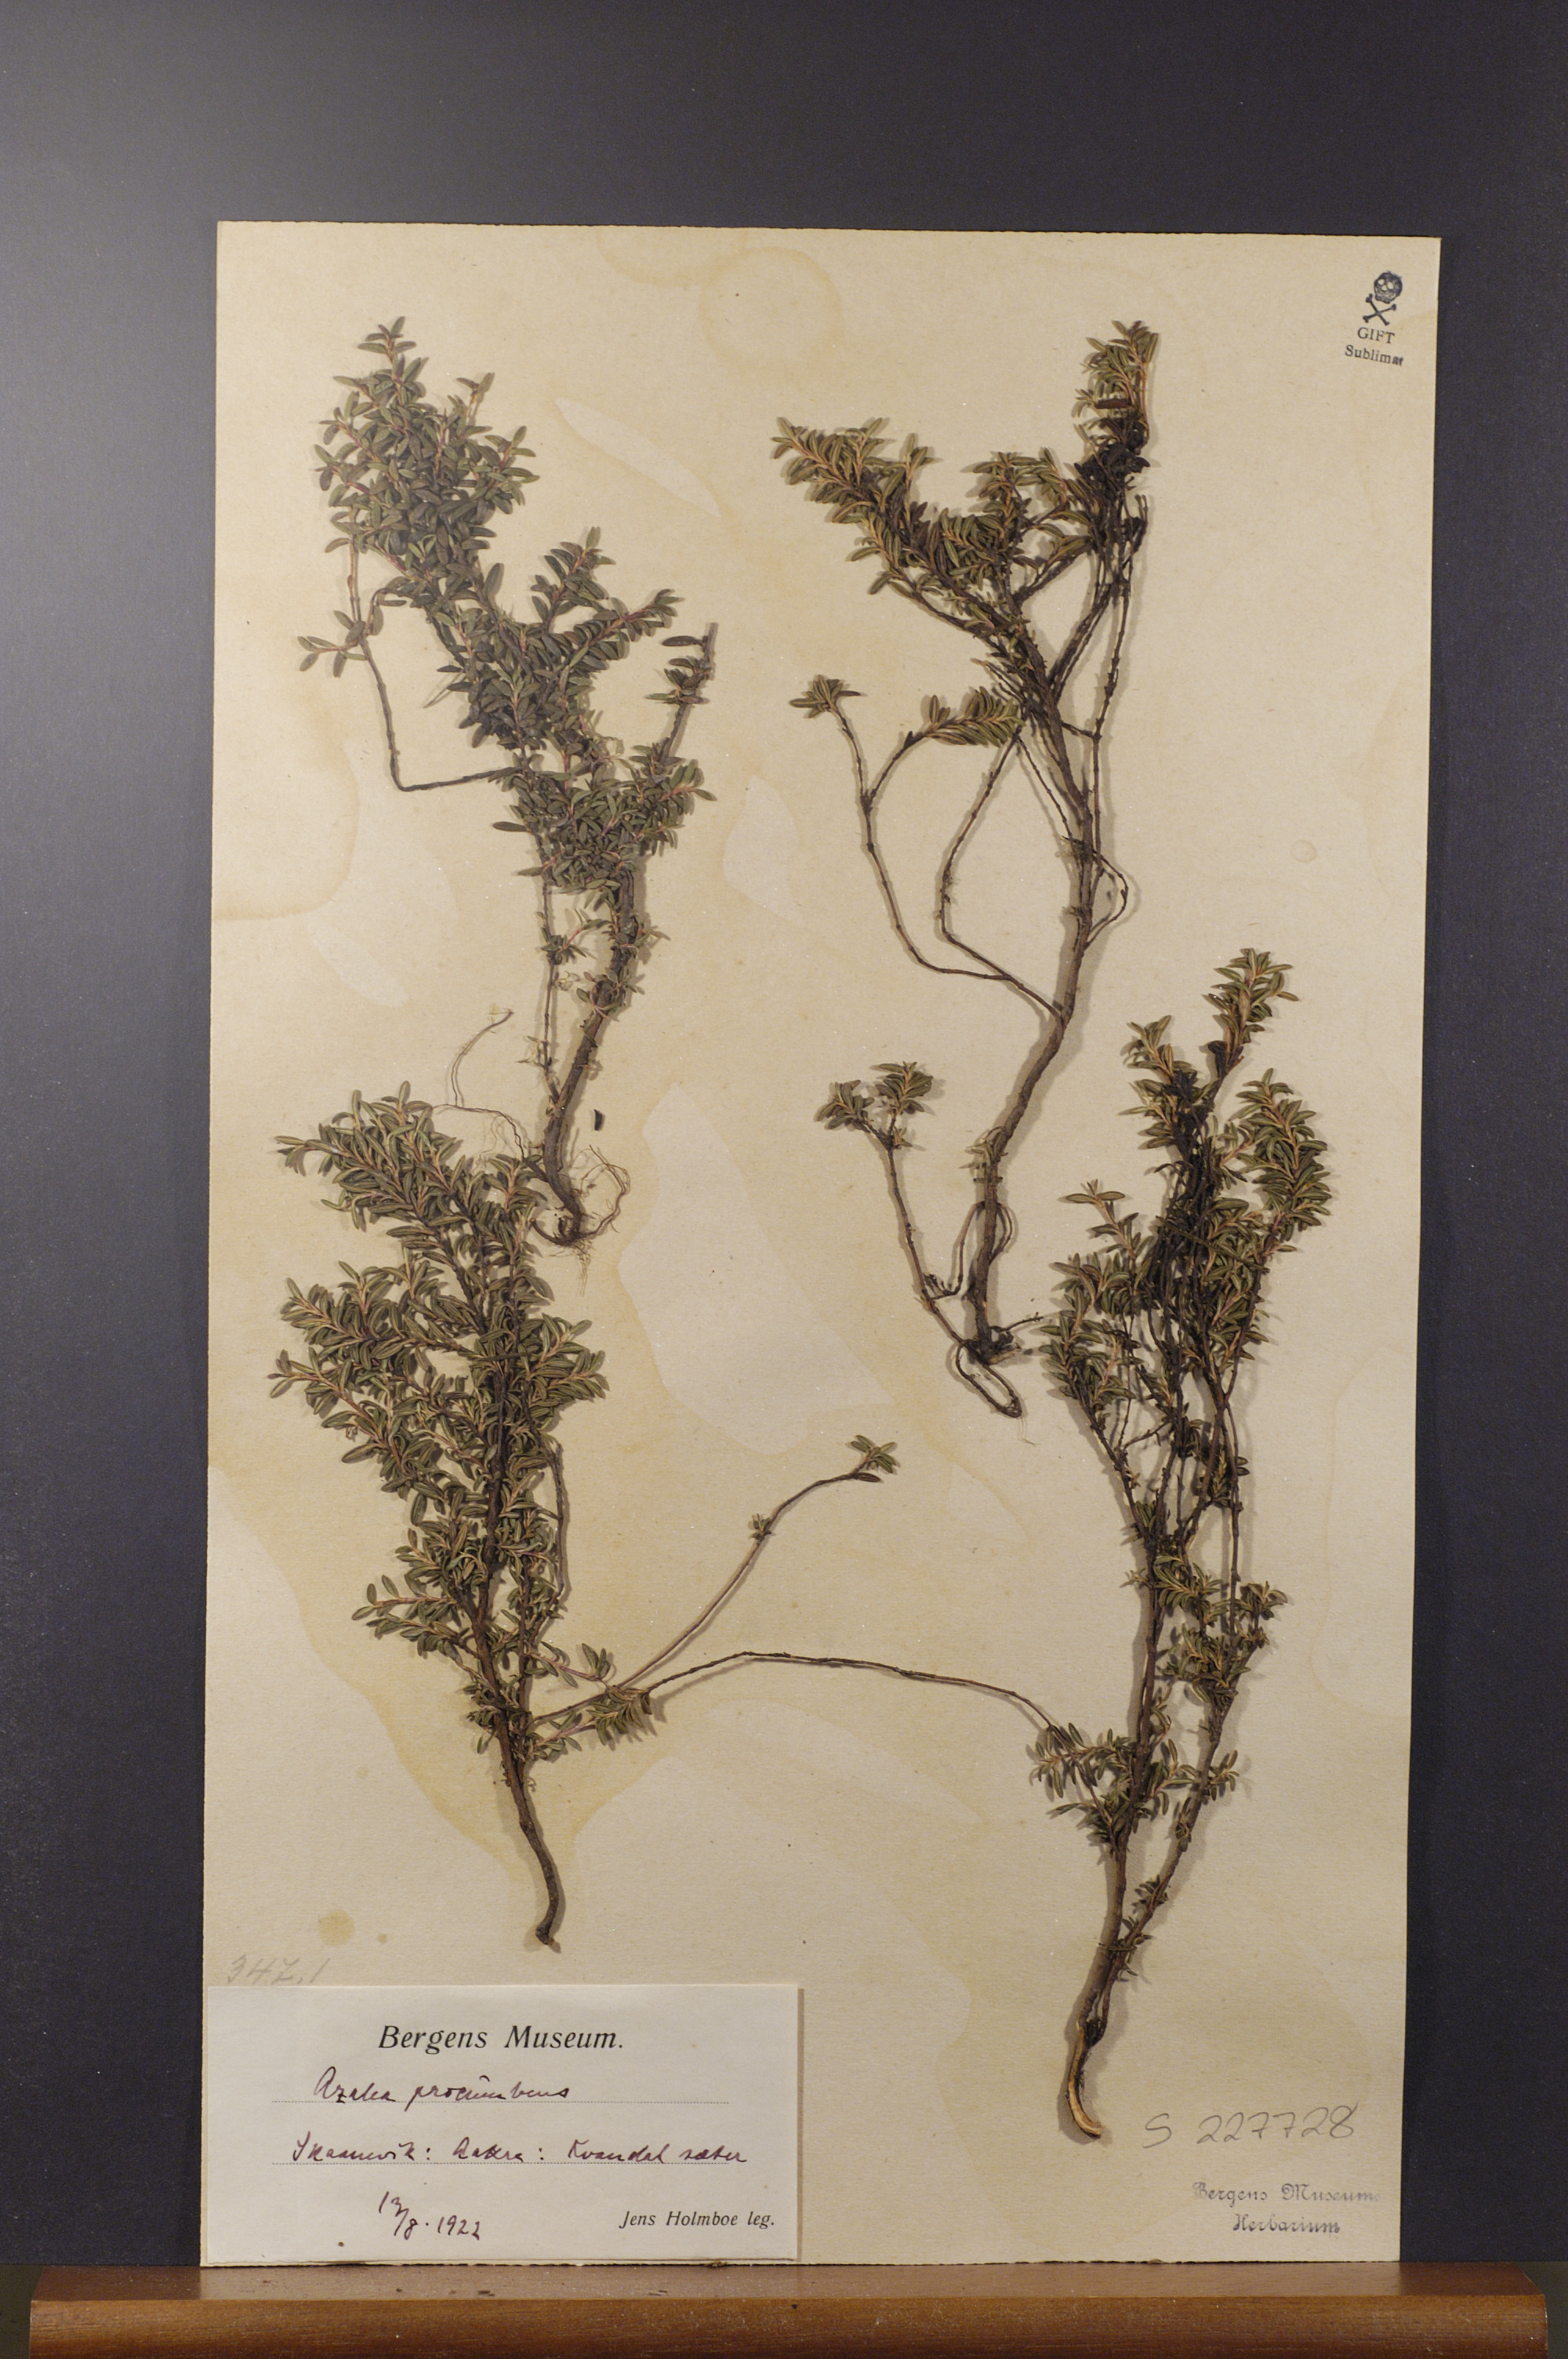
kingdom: Plantae
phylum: Tracheophyta
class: Magnoliopsida
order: Ericales
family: Ericaceae
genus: Kalmia
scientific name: Kalmia procumbens
